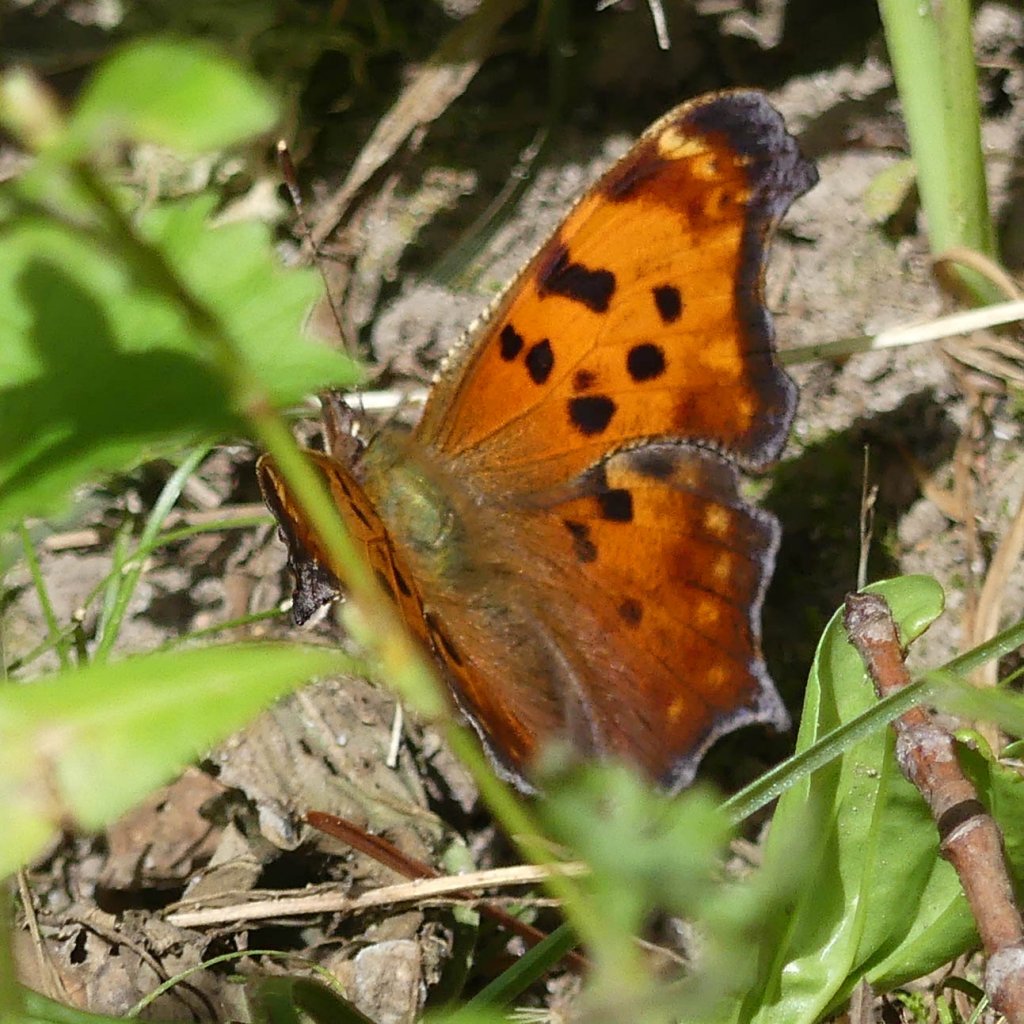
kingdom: Animalia
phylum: Arthropoda
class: Insecta
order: Lepidoptera
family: Nymphalidae
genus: Polygonia
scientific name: Polygonia comma
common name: Eastern Comma
